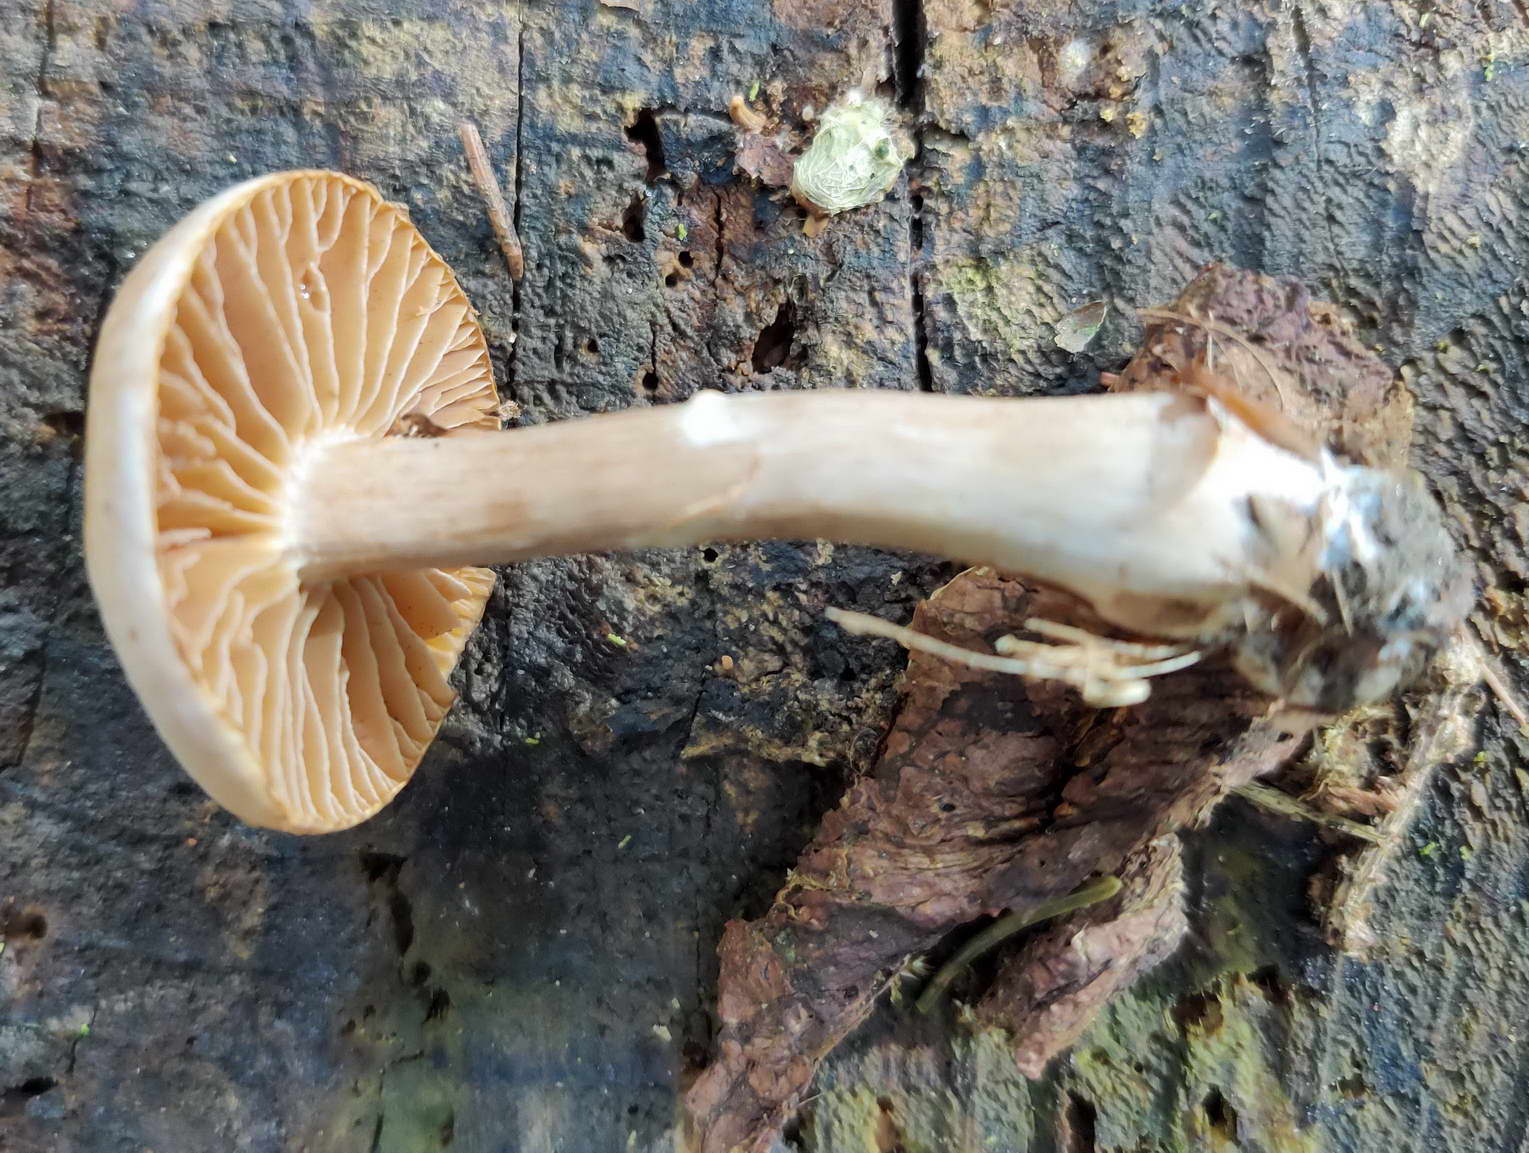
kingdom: Fungi
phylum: Basidiomycota
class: Agaricomycetes
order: Agaricales
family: Cortinariaceae
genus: Cortinarius
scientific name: Cortinarius hinnuleus
